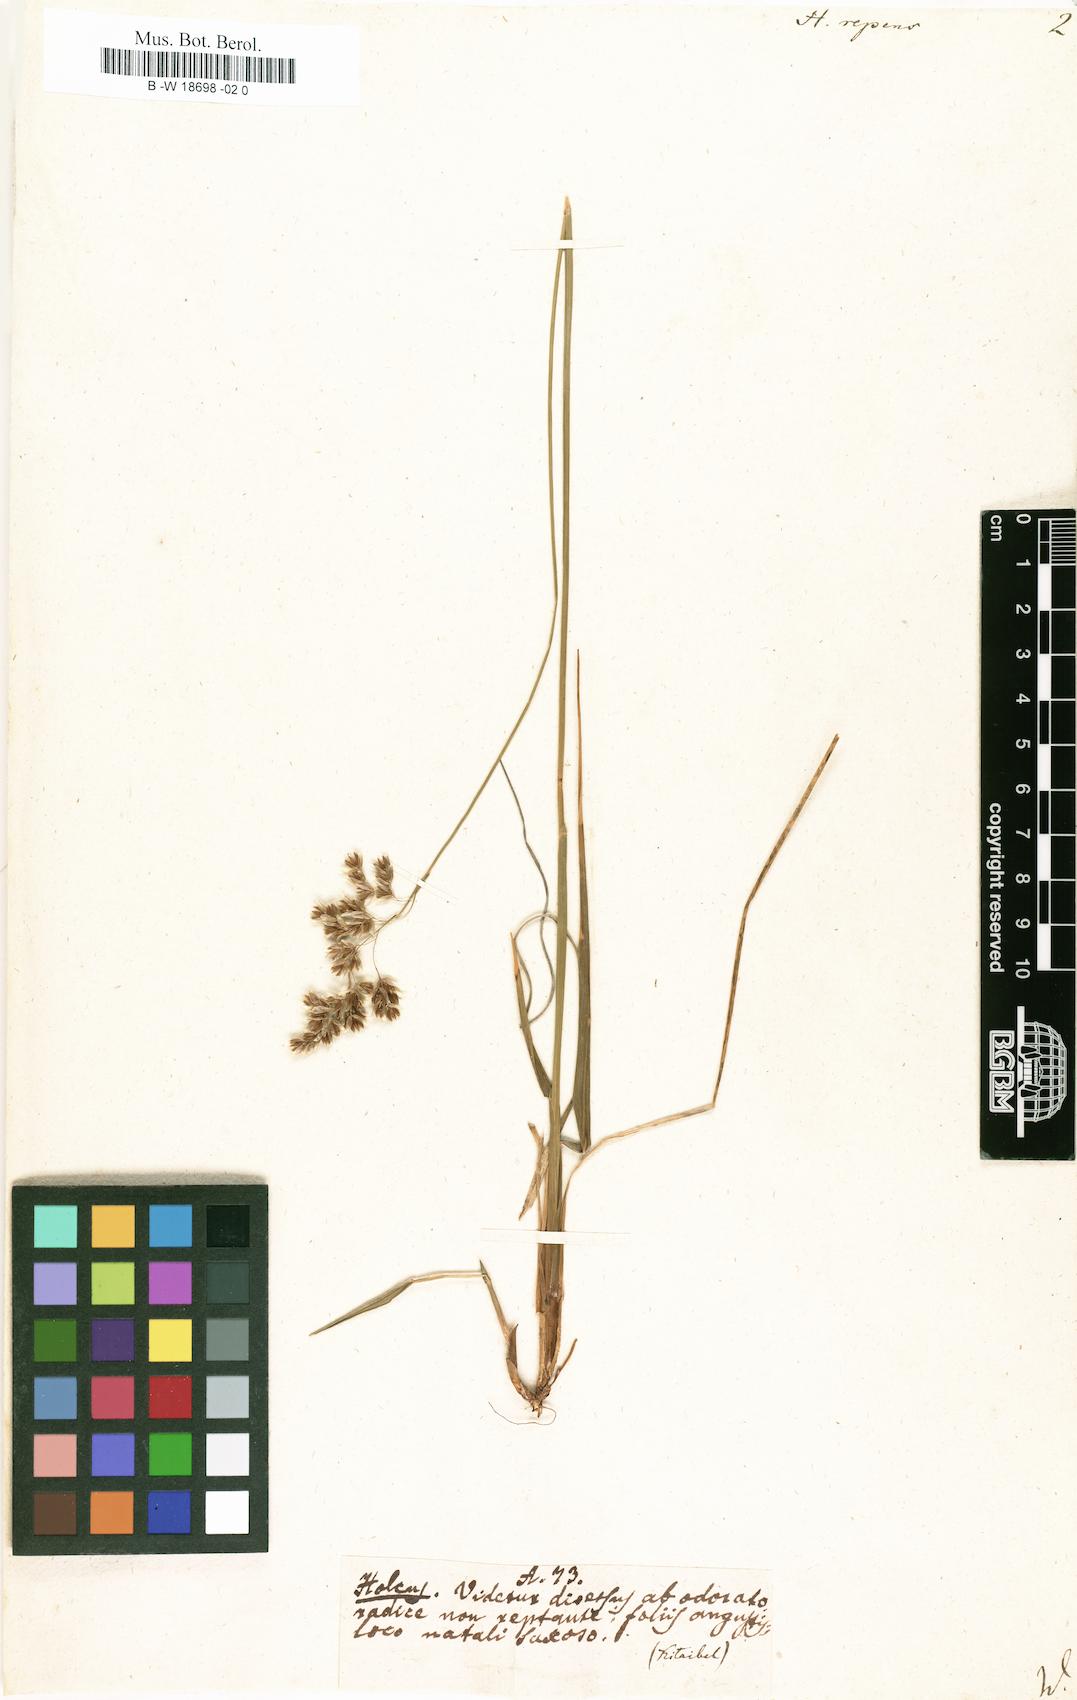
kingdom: Plantae
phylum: Tracheophyta
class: Liliopsida
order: Poales
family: Poaceae
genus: Anthoxanthum
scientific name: Anthoxanthum repens
